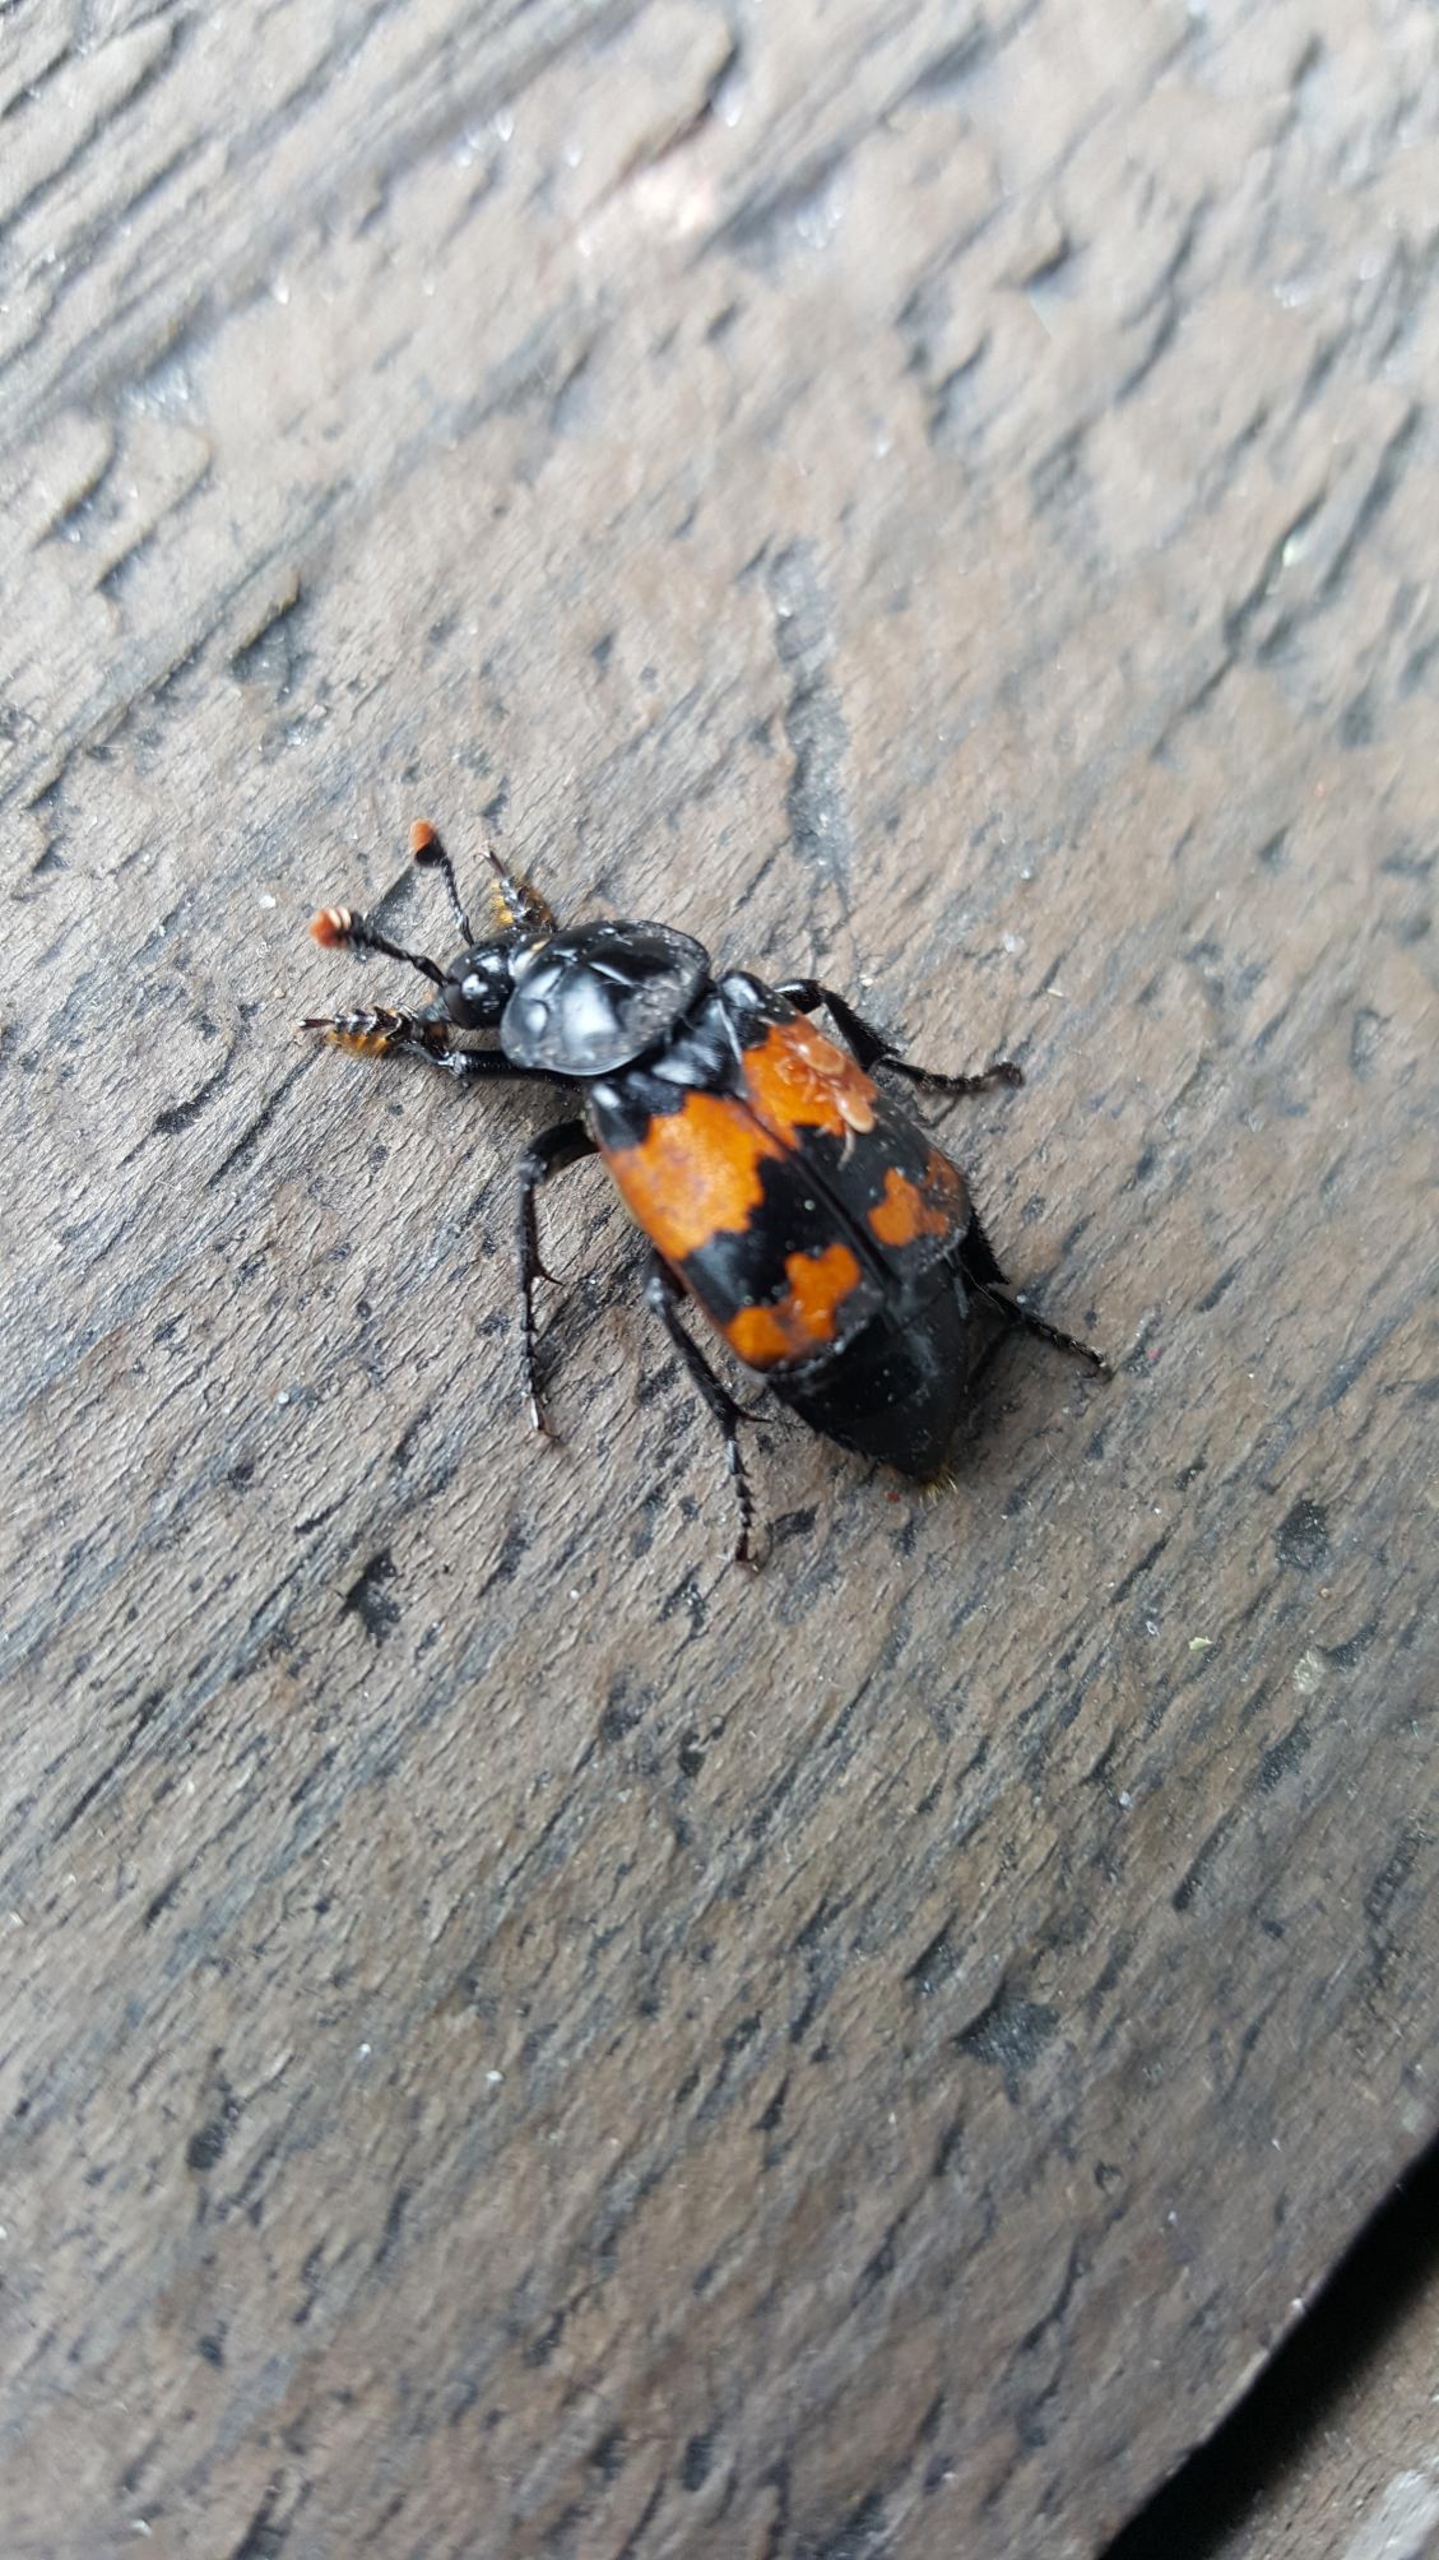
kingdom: Animalia
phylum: Arthropoda
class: Insecta
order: Coleoptera
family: Staphylinidae
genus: Nicrophorus
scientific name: Nicrophorus investigator
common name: Skovådselgraver
